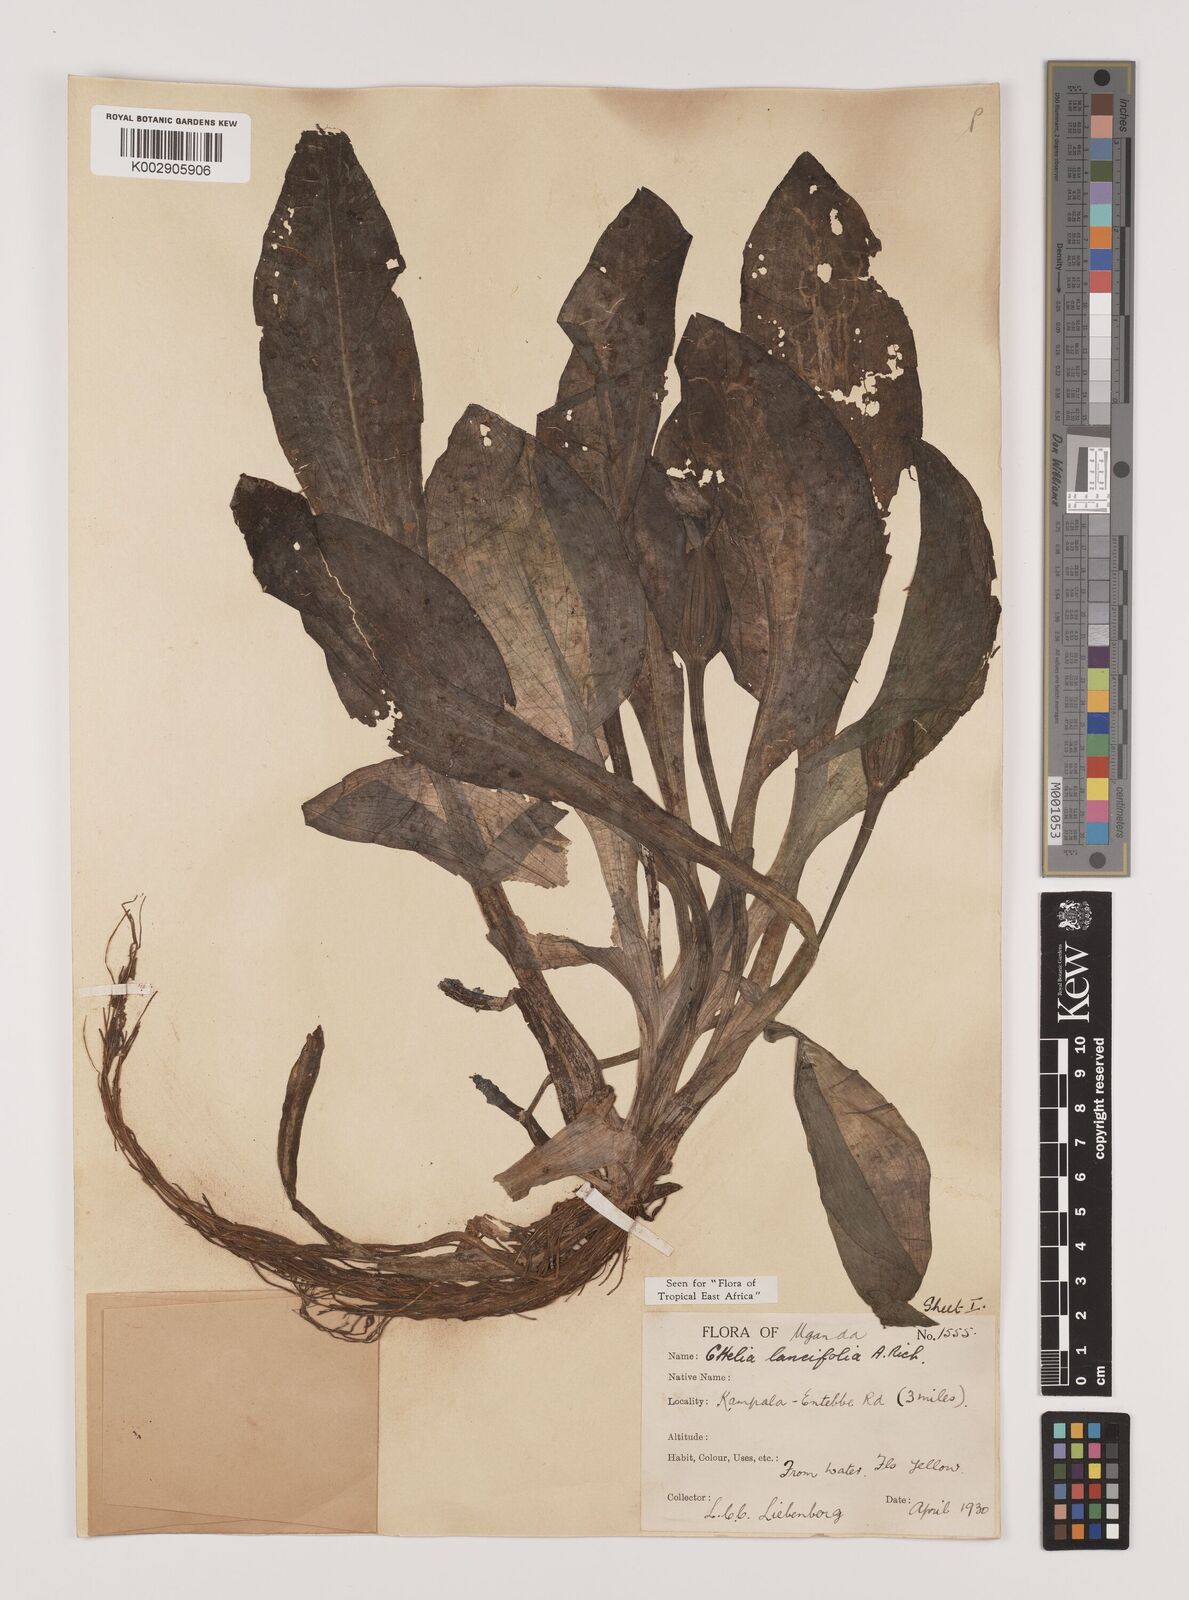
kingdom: Plantae
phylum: Tracheophyta
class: Liliopsida
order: Alismatales
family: Hydrocharitaceae
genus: Ottelia
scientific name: Ottelia ulvifolia
